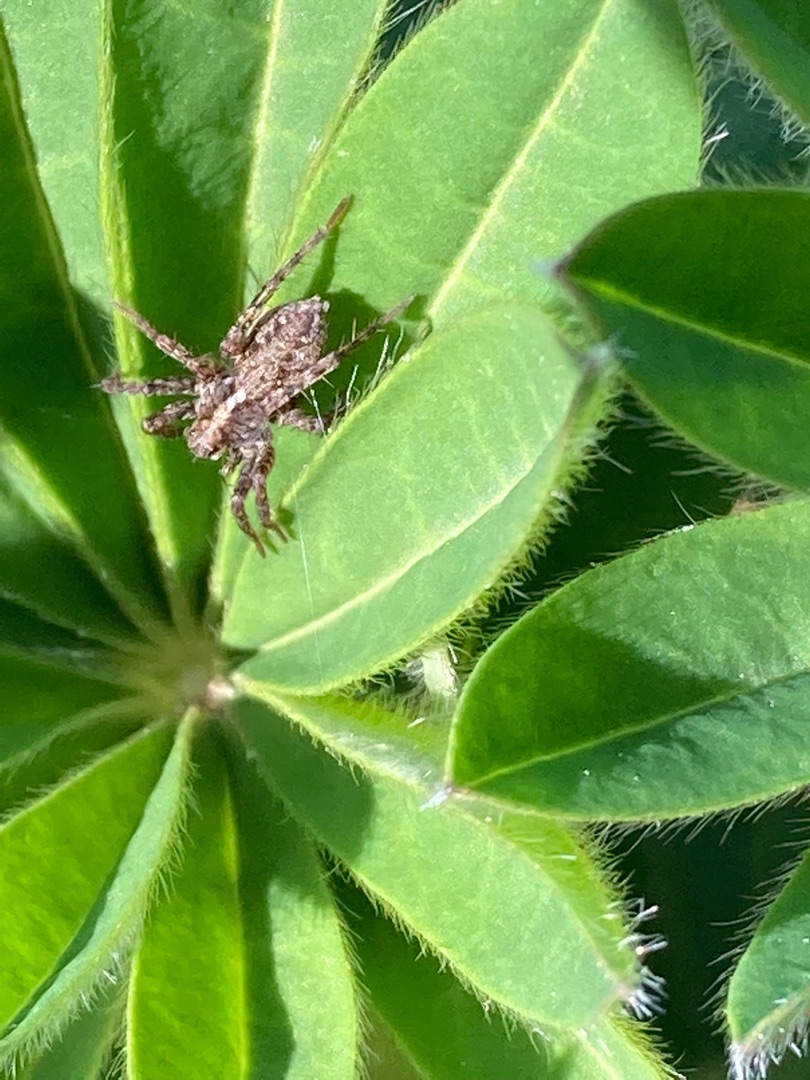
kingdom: Animalia
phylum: Arthropoda
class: Arachnida
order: Araneae
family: Lycosidae
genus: Pardosa
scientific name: Pardosa
